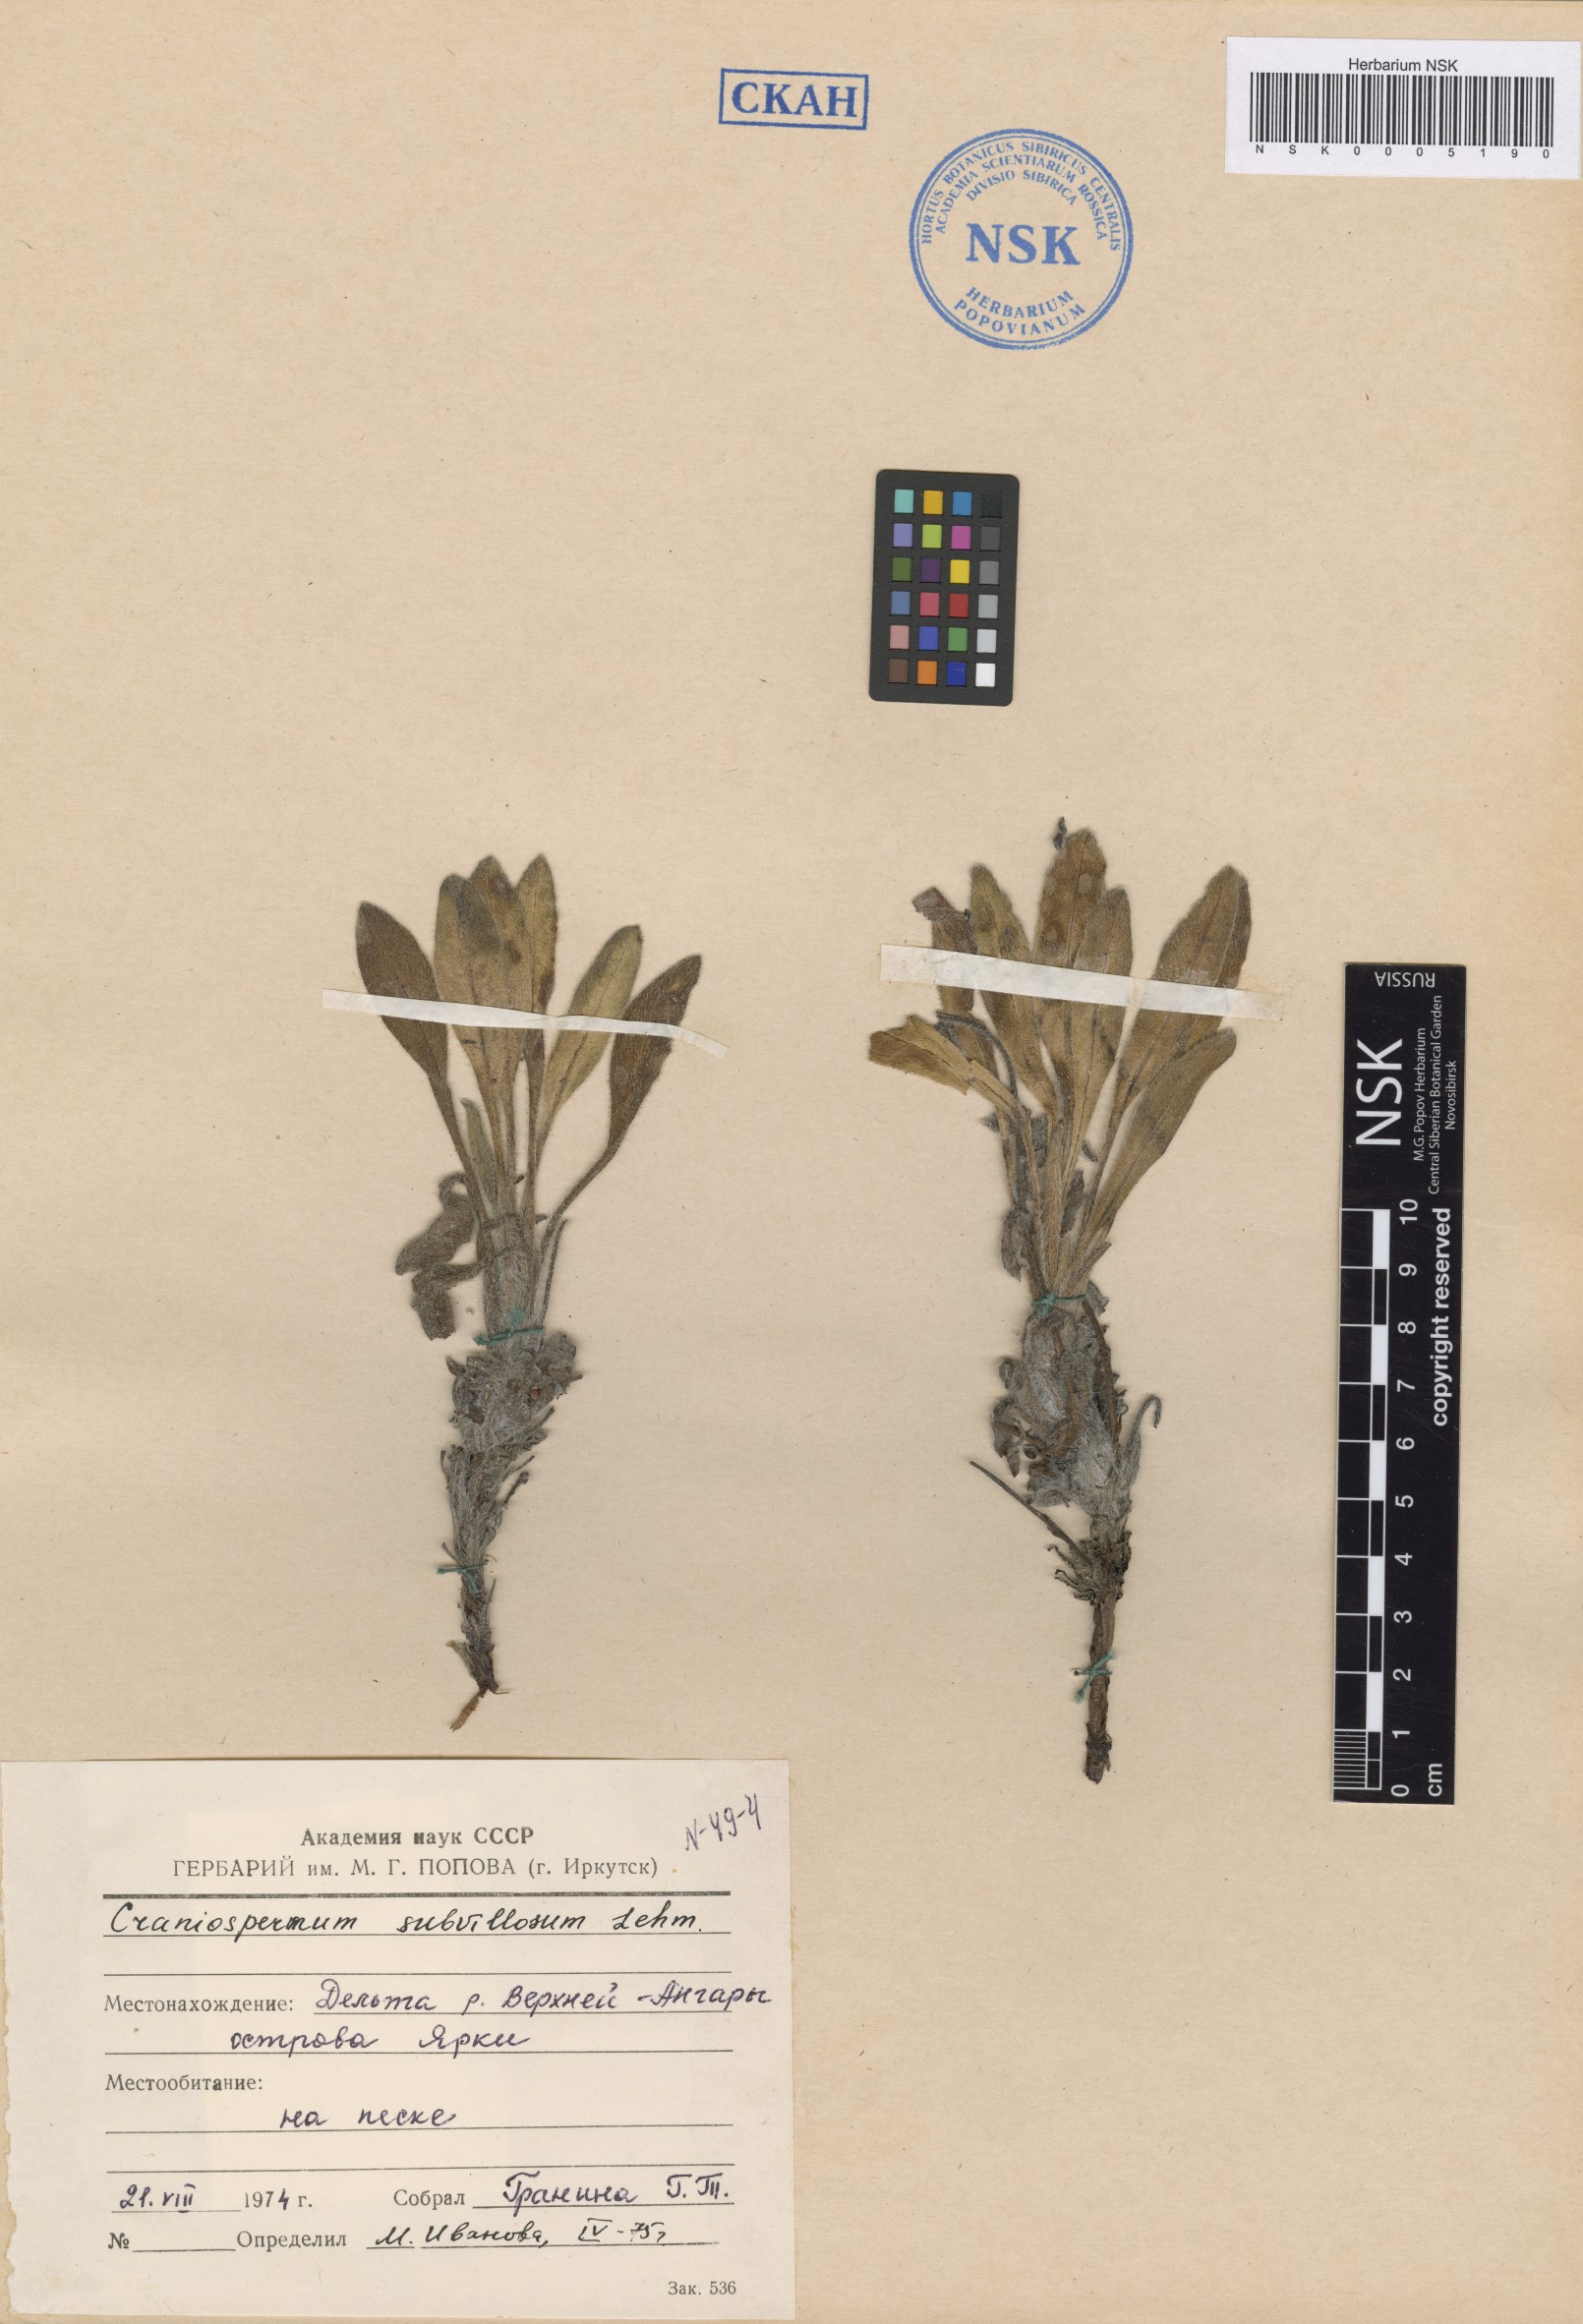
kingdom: Plantae
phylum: Tracheophyta
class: Magnoliopsida
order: Boraginales
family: Boraginaceae
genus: Craniospermum
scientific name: Craniospermum subvillosum
